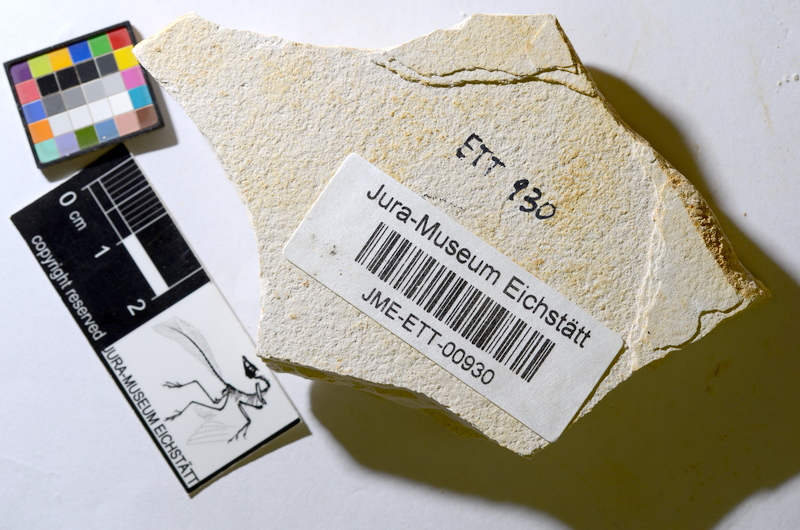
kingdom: Animalia
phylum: Chordata
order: Salmoniformes
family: Orthogonikleithridae
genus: Orthogonikleithrus
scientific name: Orthogonikleithrus hoelli
